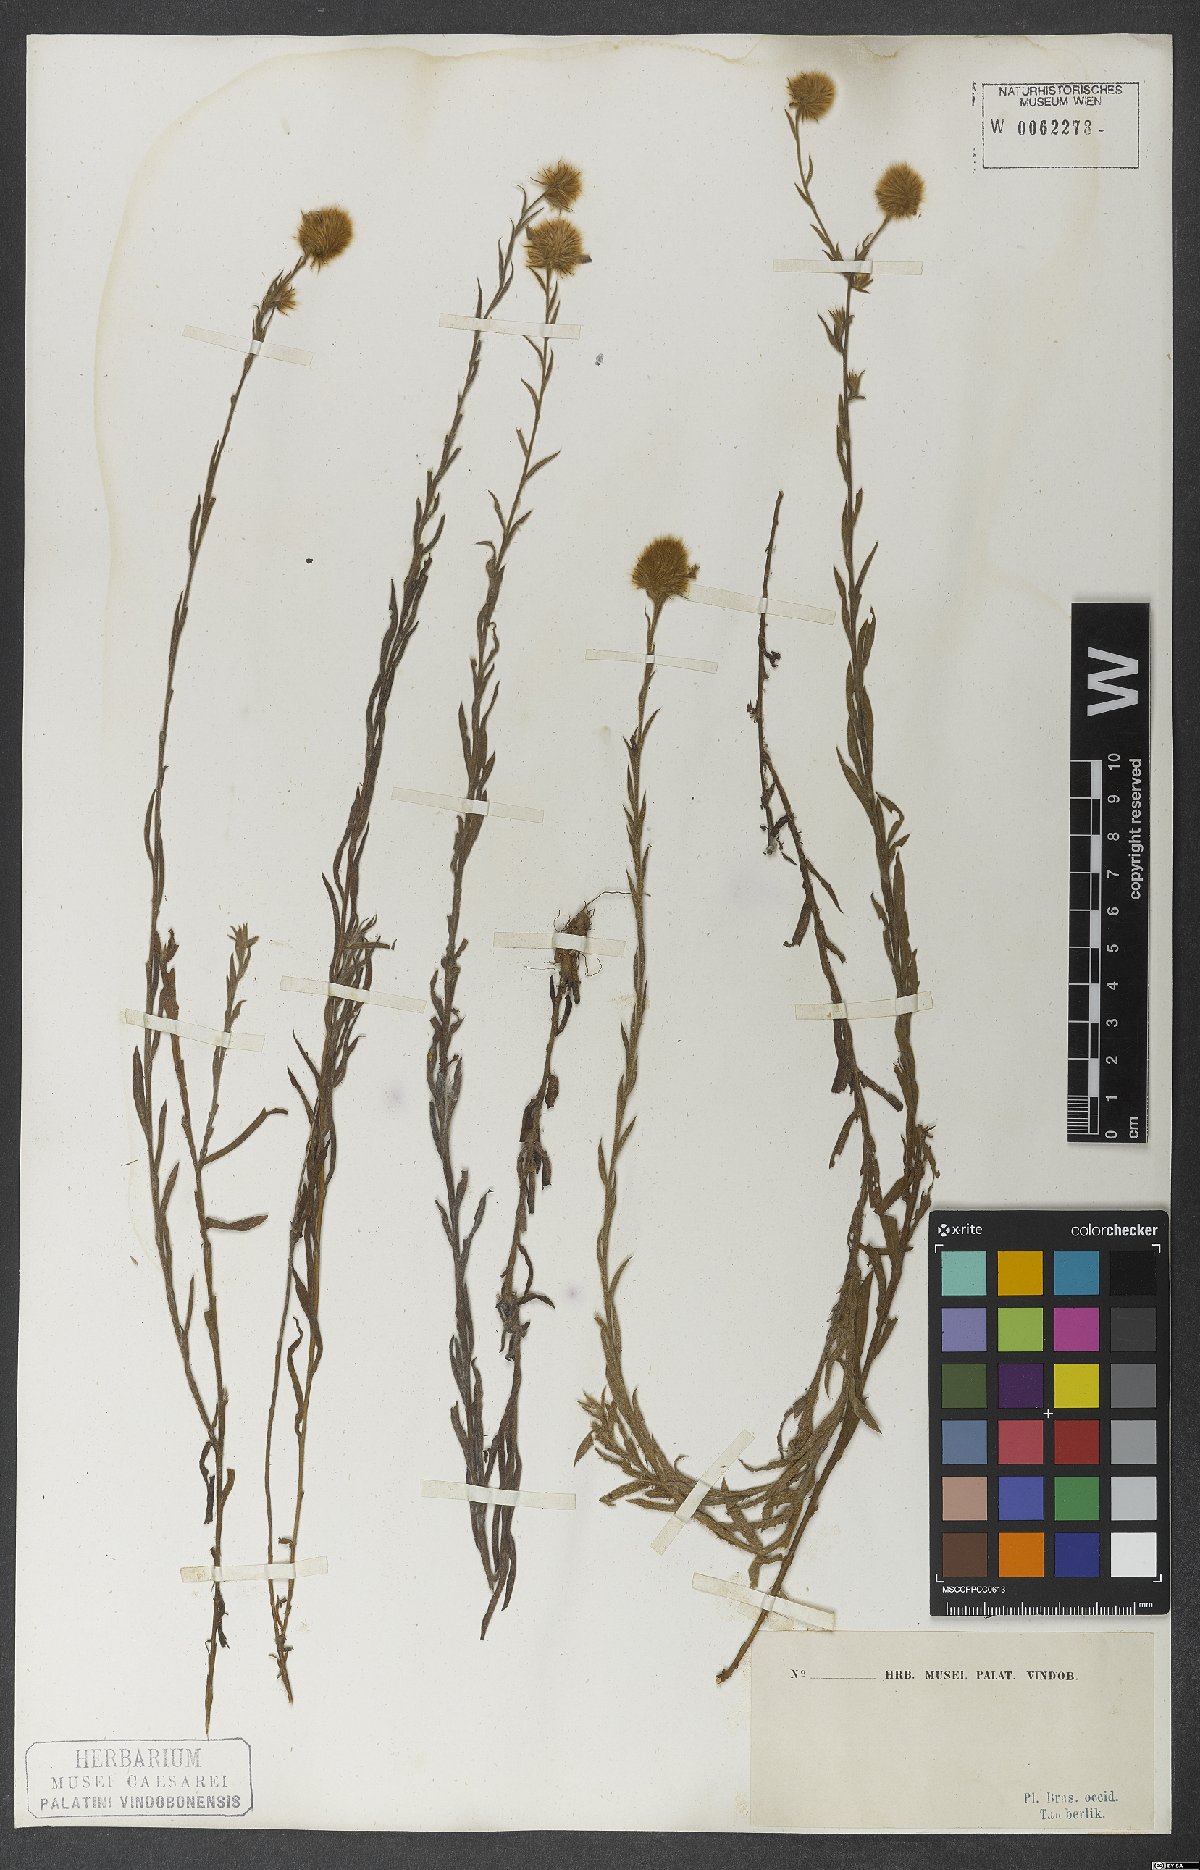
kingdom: Plantae
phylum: Tracheophyta
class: Magnoliopsida
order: Solanales
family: Convolvulaceae
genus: Evolvulus
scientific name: Evolvulus pterocaulon
